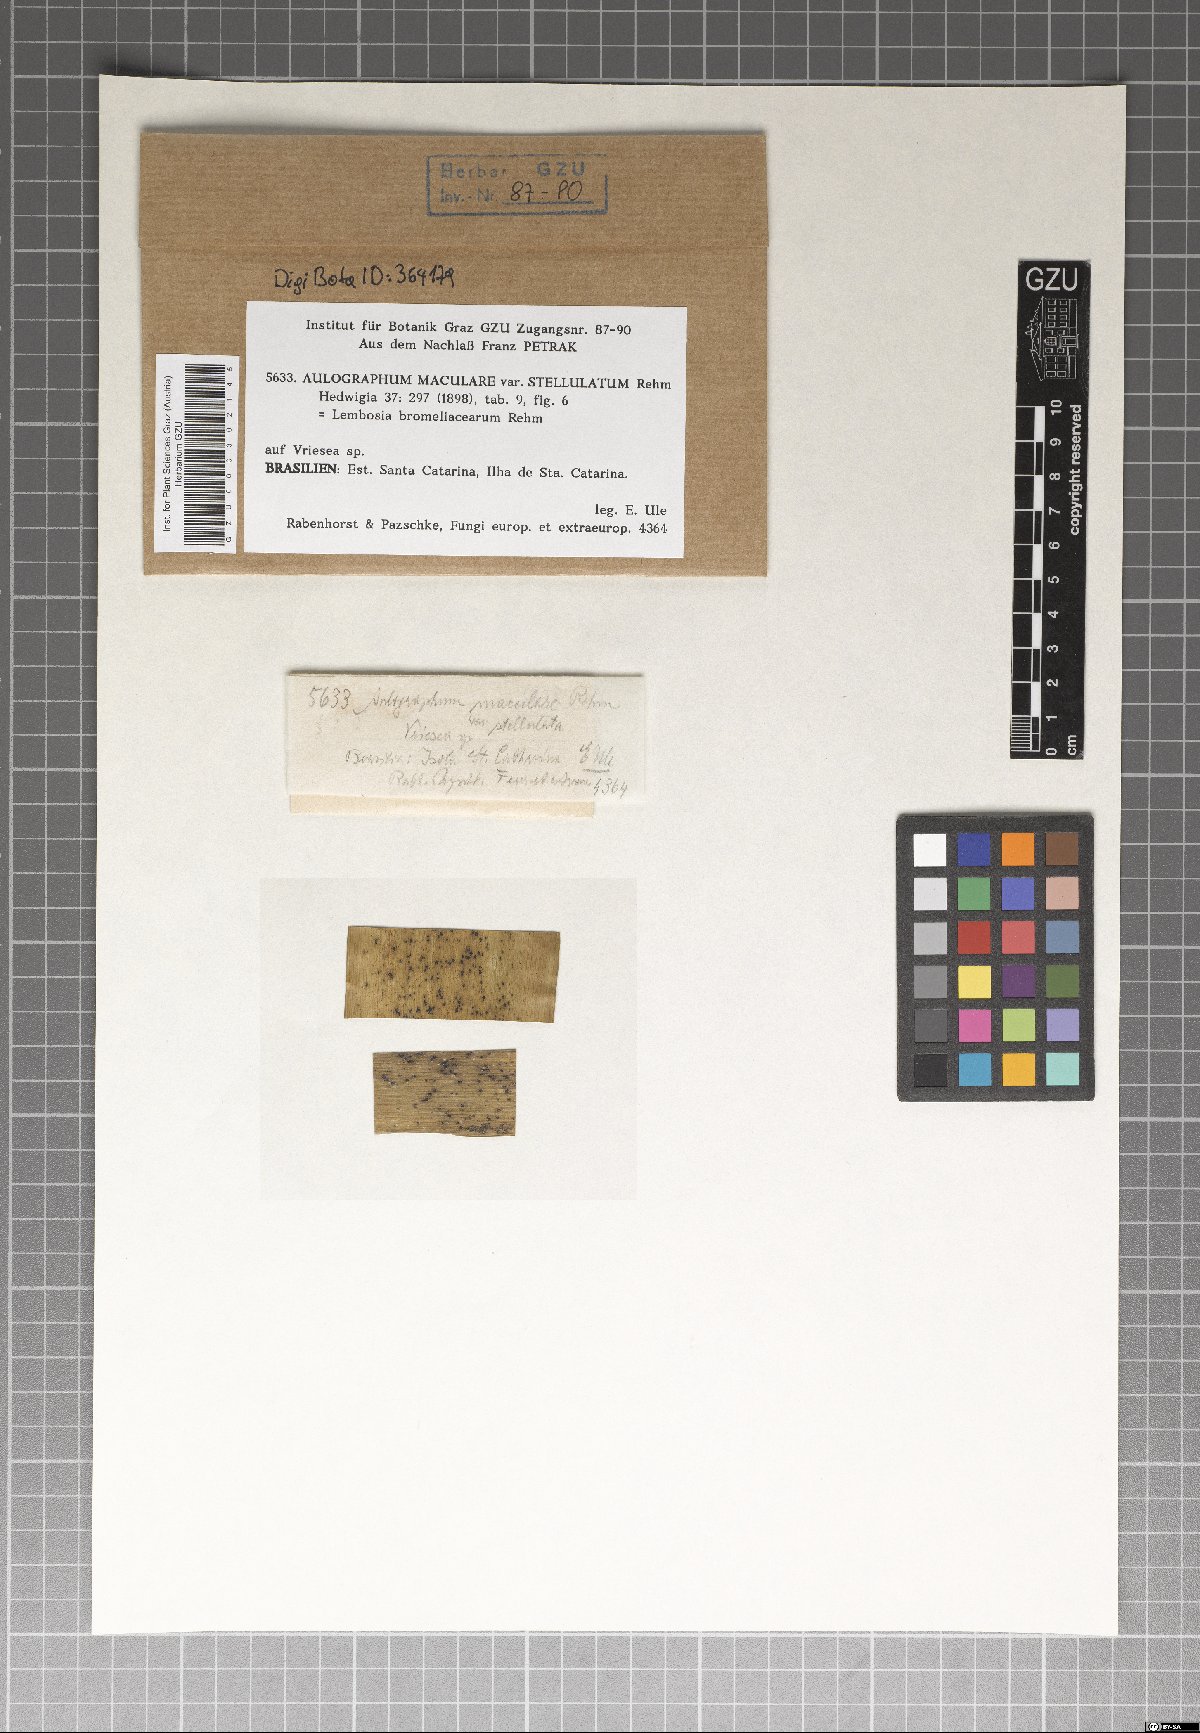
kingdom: Fungi
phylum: Ascomycota
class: Dothideomycetes
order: Asterinales
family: Asterinaceae
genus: Echidnodes
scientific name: Echidnodes bromeliacearum
